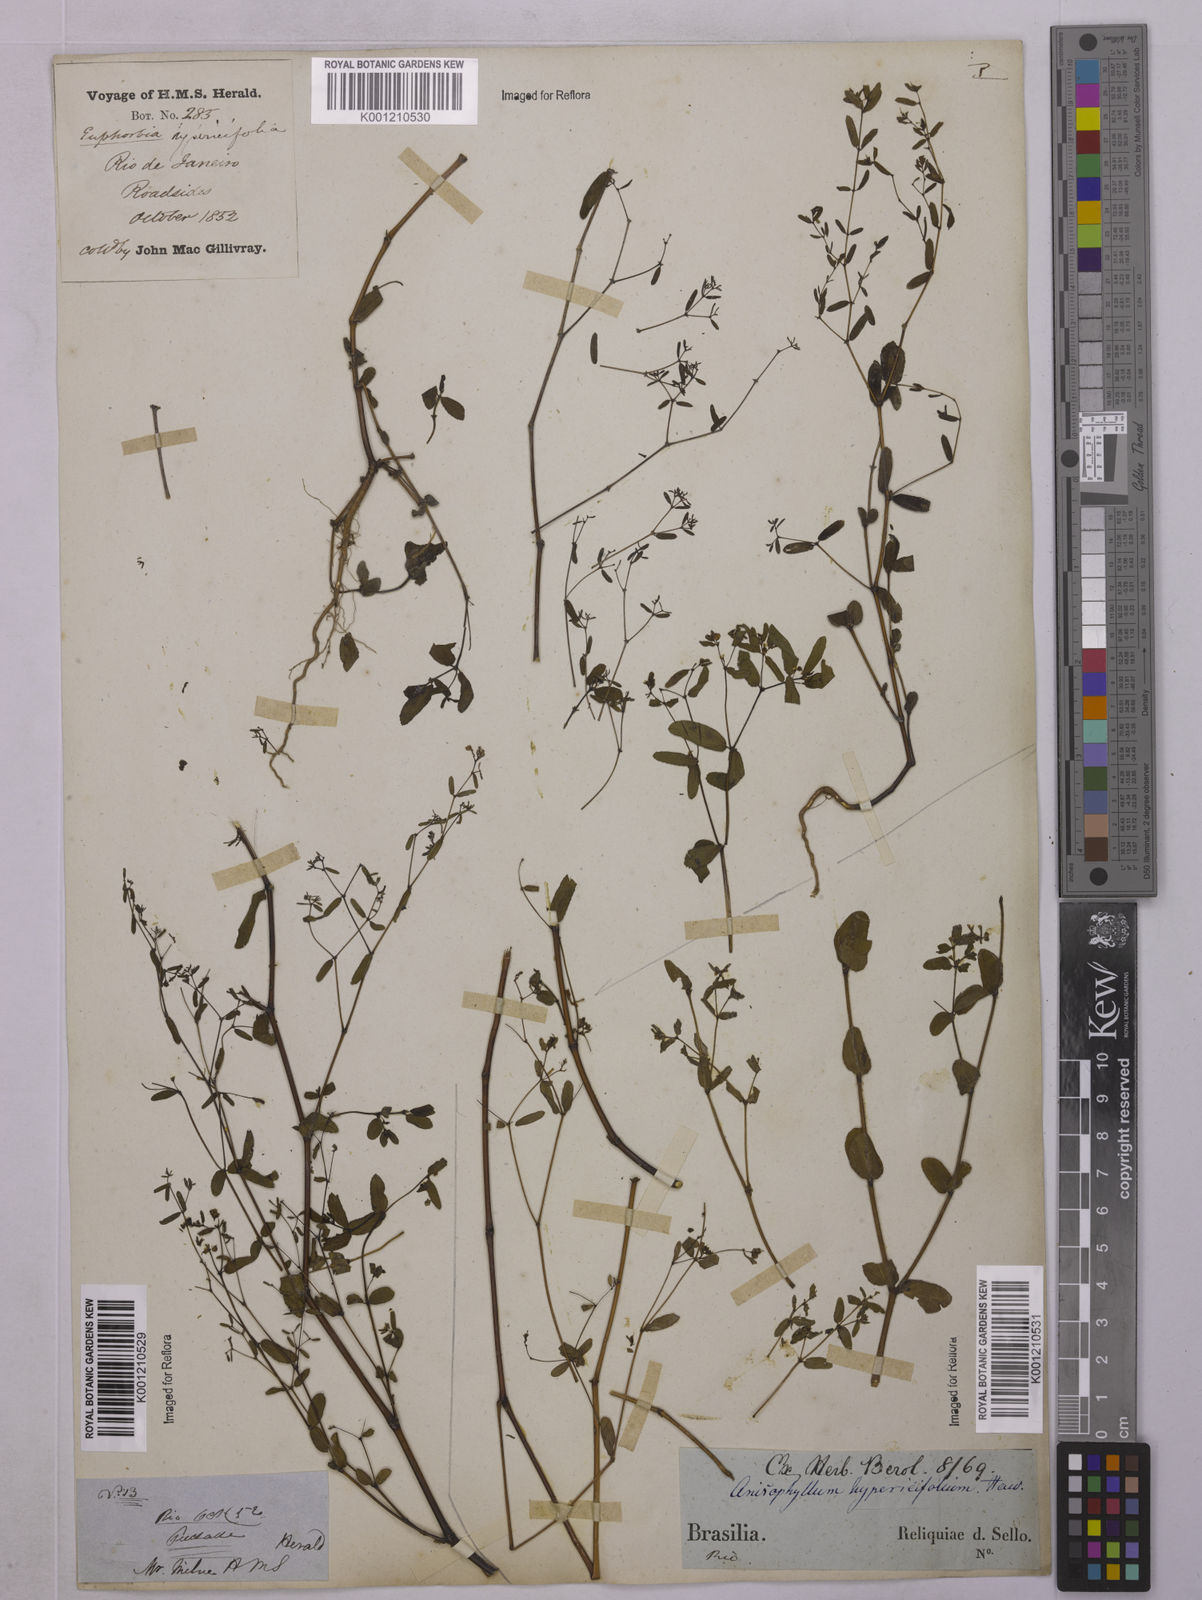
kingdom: Plantae
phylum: Tracheophyta
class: Magnoliopsida
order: Malpighiales
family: Euphorbiaceae
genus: Euphorbia
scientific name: Euphorbia hypericifolia
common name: Graceful sandmat
